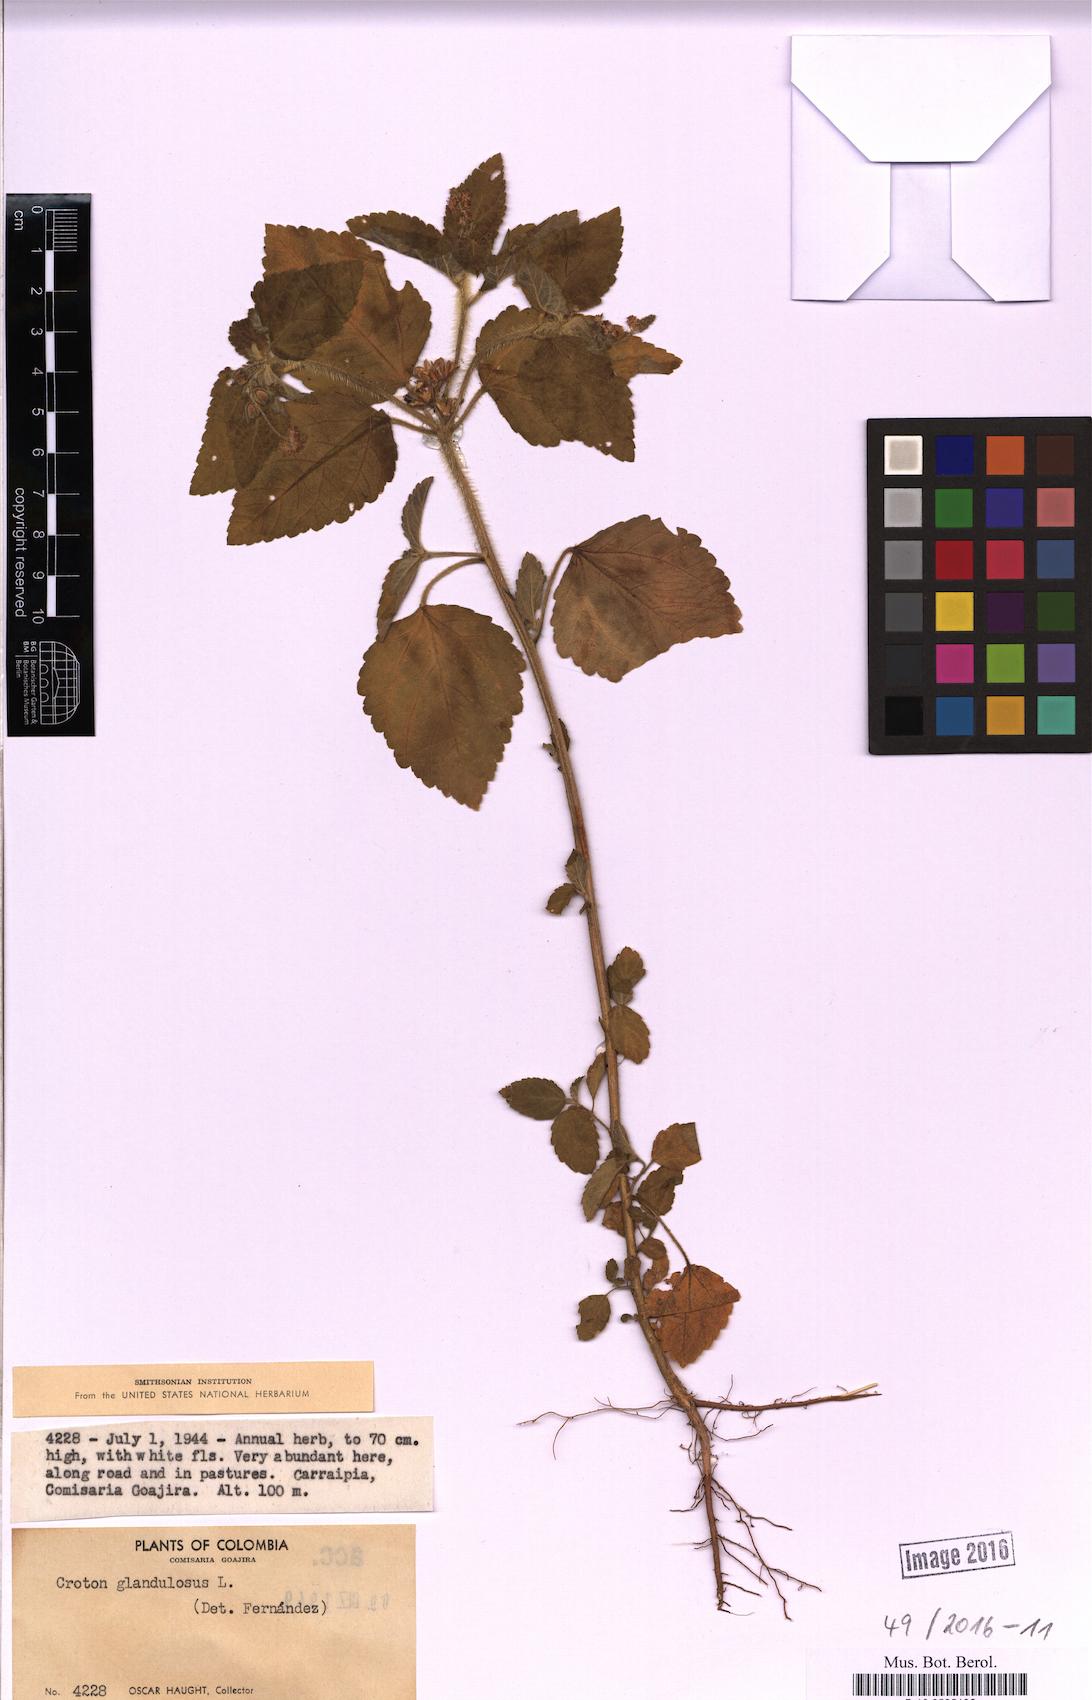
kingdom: Plantae
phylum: Tracheophyta
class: Magnoliopsida
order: Malpighiales
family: Euphorbiaceae
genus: Croton
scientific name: Croton glandulosus
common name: Tropic croton
